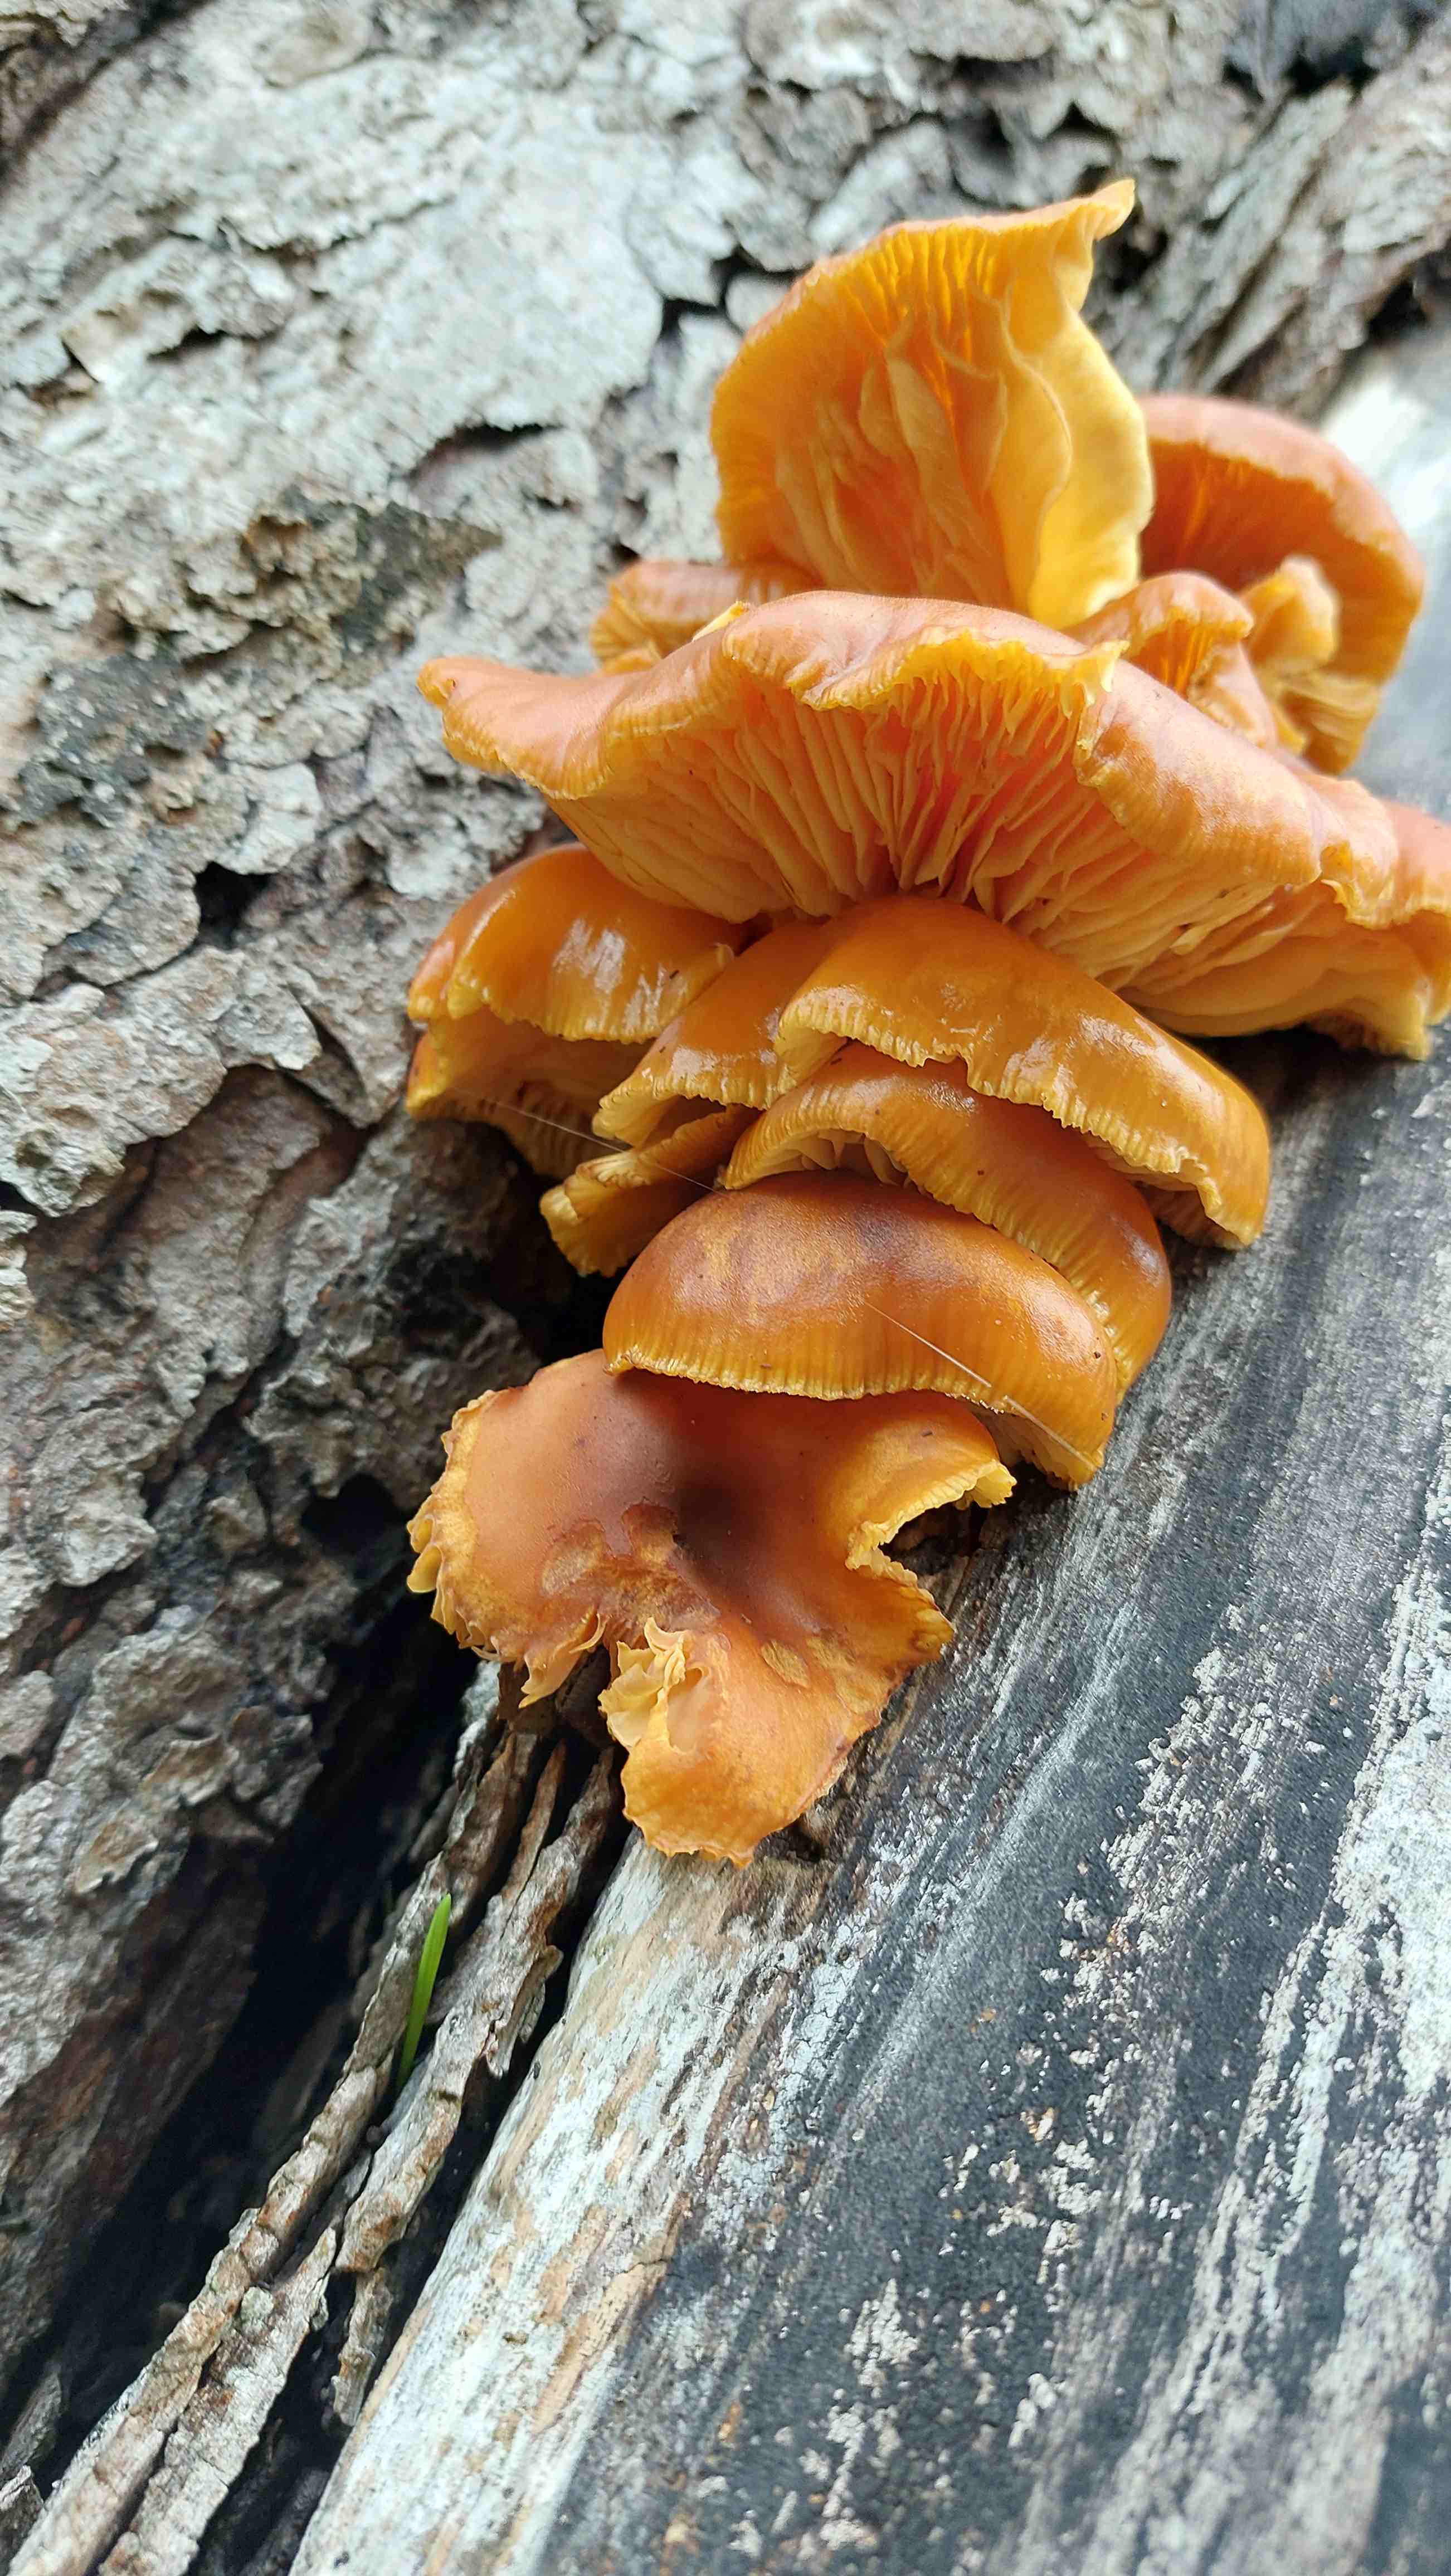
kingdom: Fungi
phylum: Basidiomycota
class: Agaricomycetes
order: Agaricales
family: Physalacriaceae
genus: Flammulina
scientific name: Flammulina
